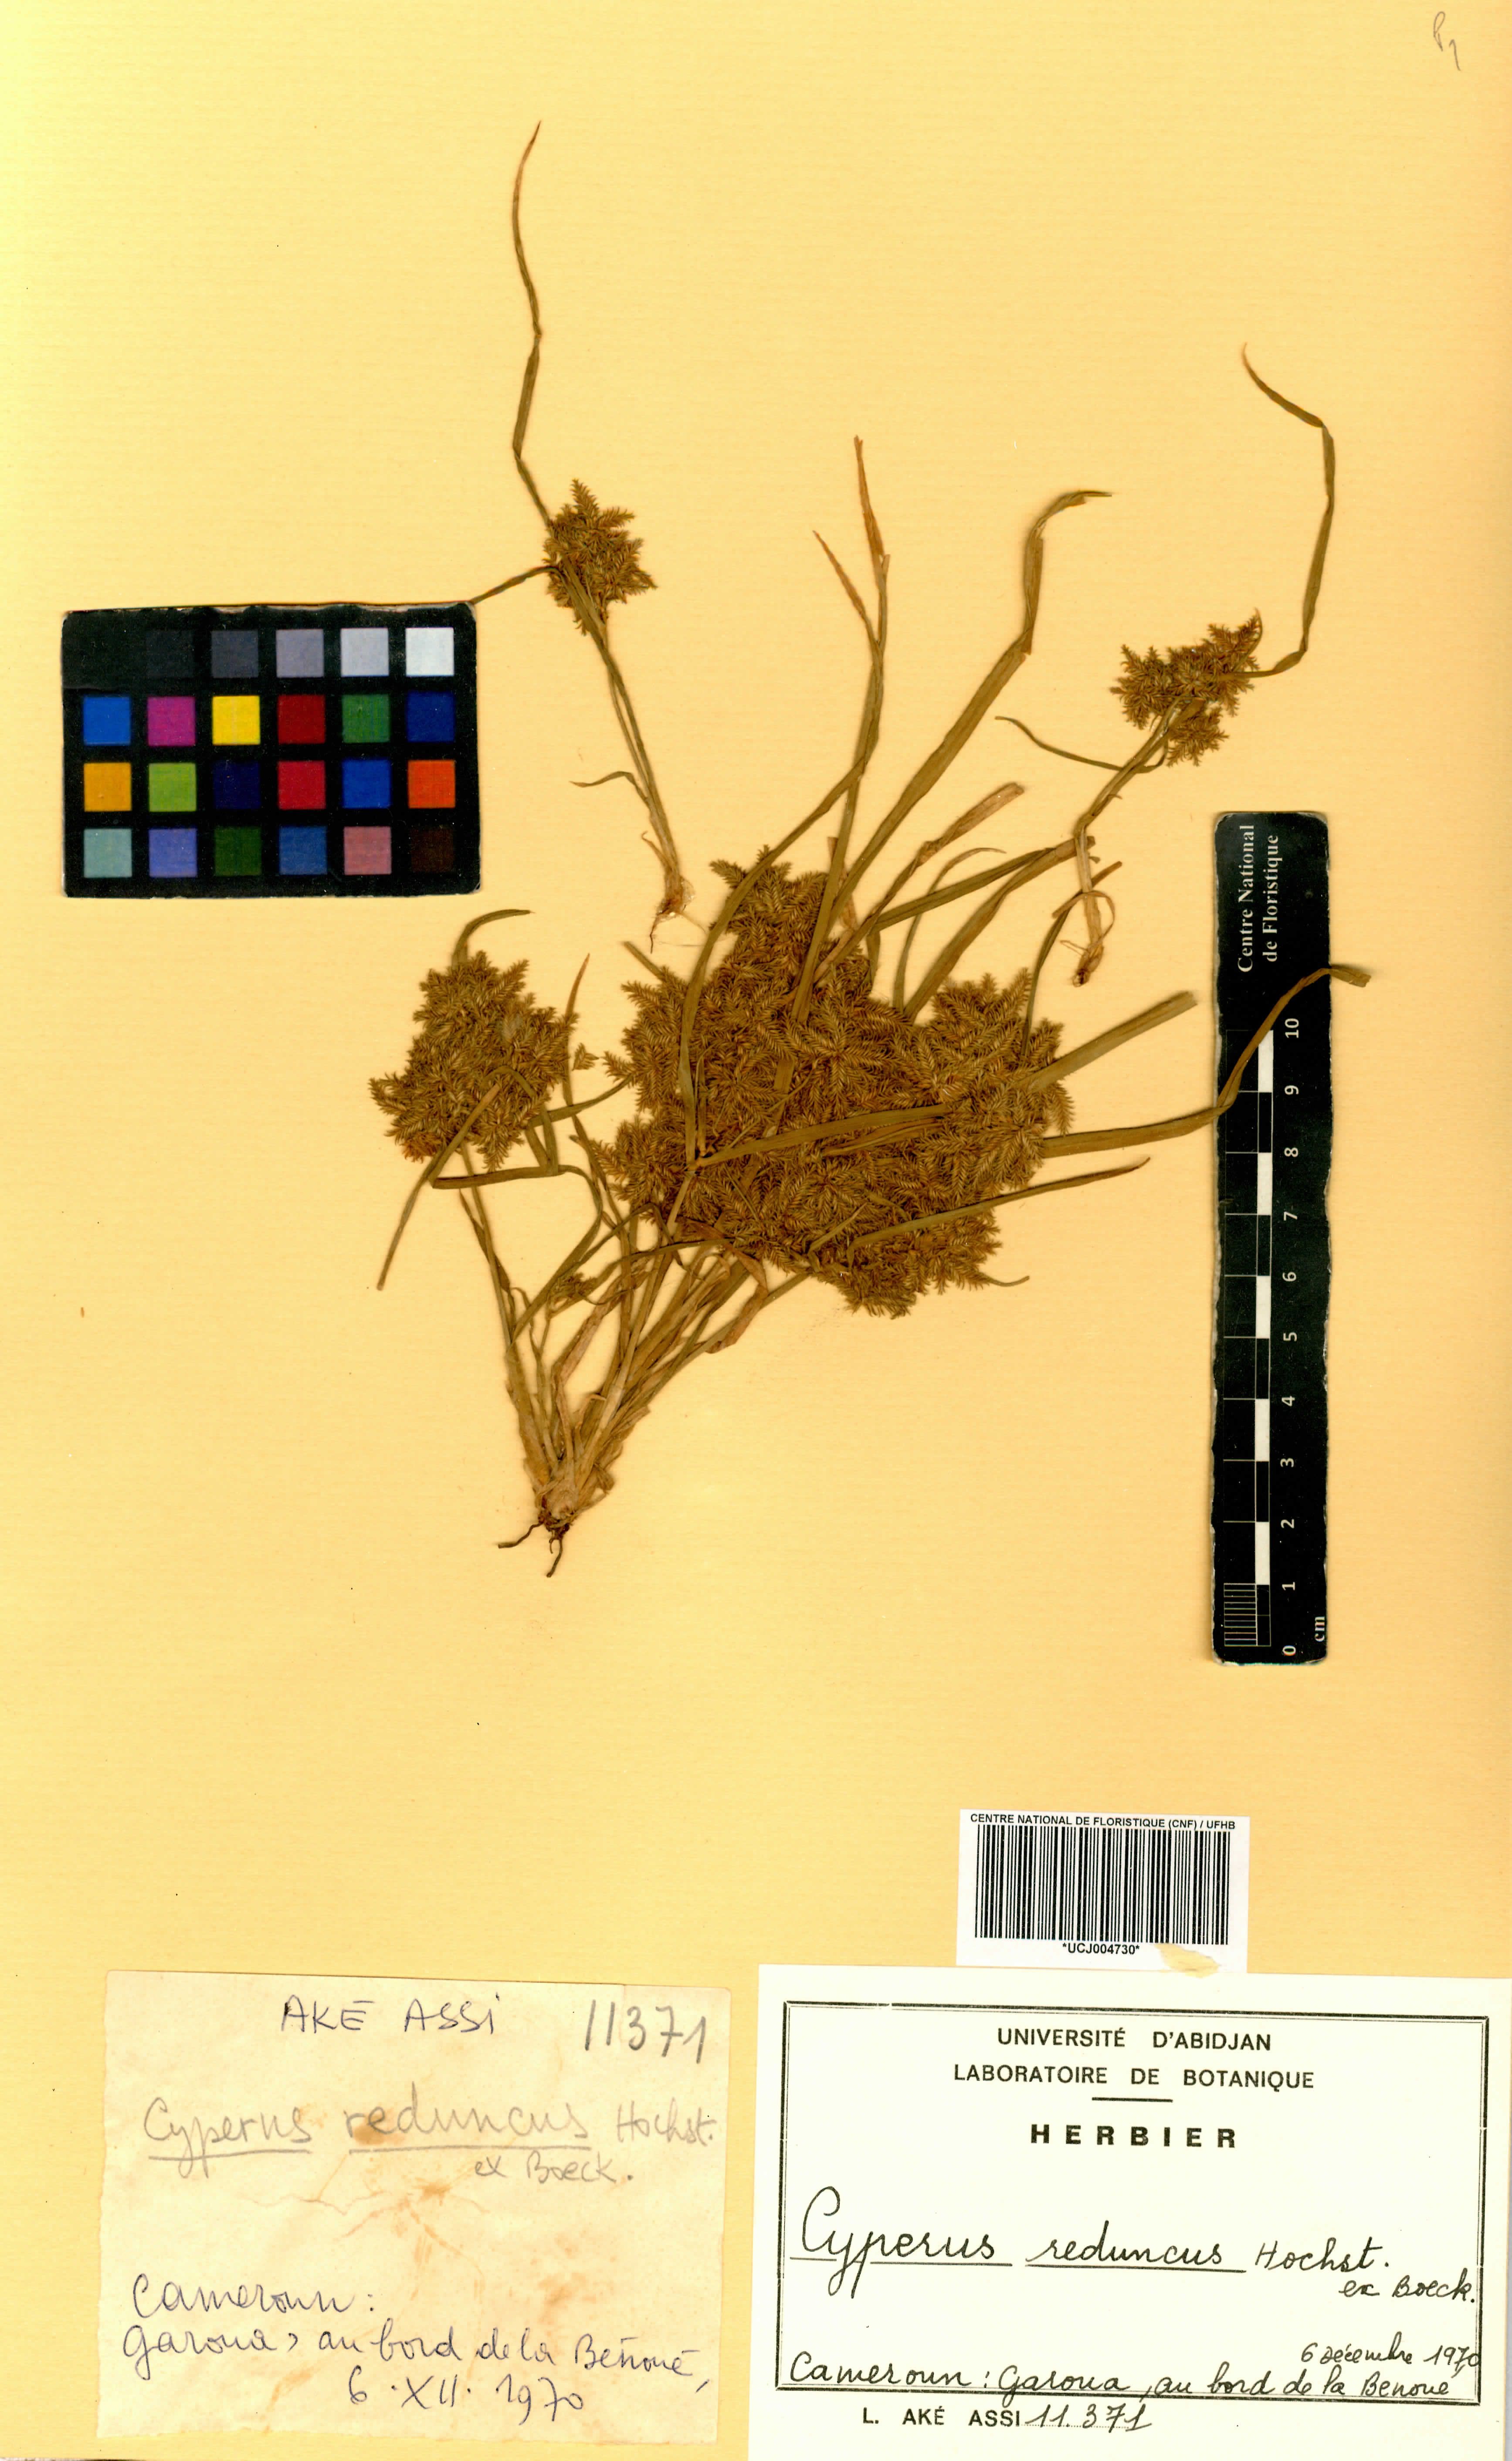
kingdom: Plantae
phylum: Tracheophyta
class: Liliopsida
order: Poales
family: Cyperaceae
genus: Cyperus
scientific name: Cyperus reduncus
